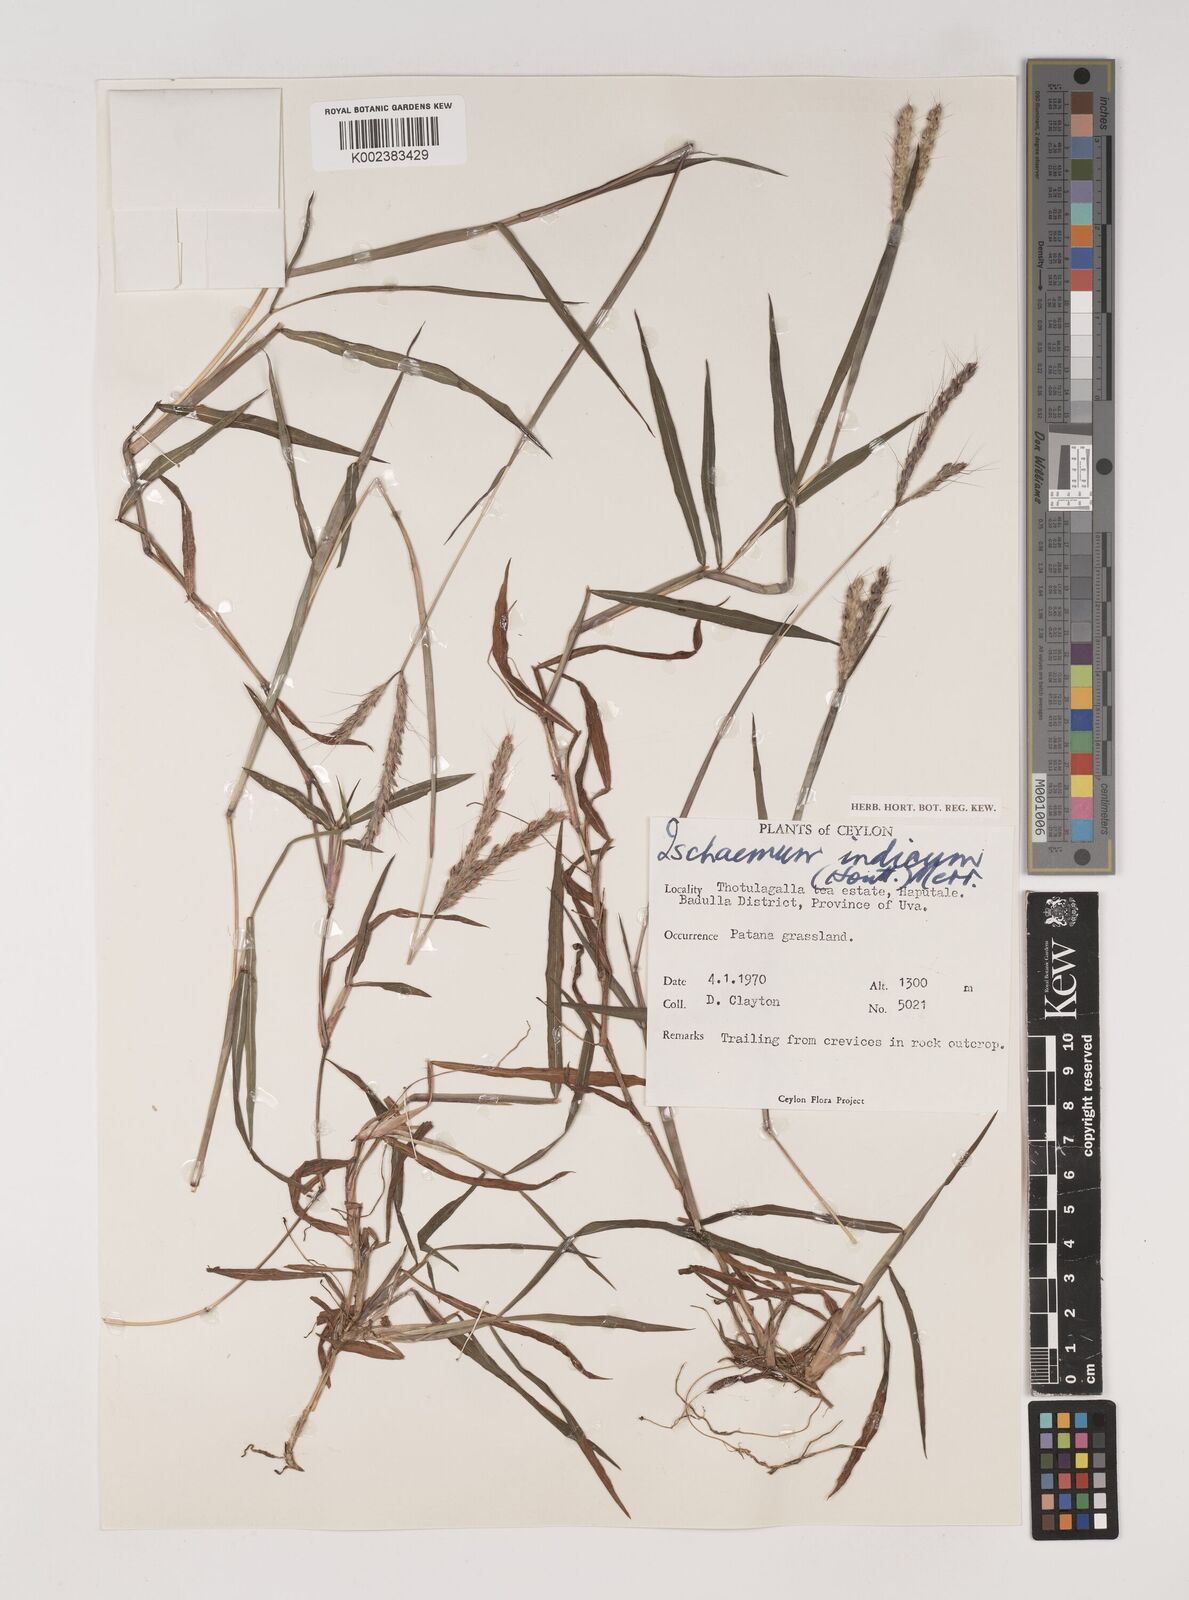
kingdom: Plantae
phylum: Tracheophyta
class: Liliopsida
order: Poales
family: Poaceae
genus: Polytrias
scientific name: Polytrias indica
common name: Indian murainagrass
